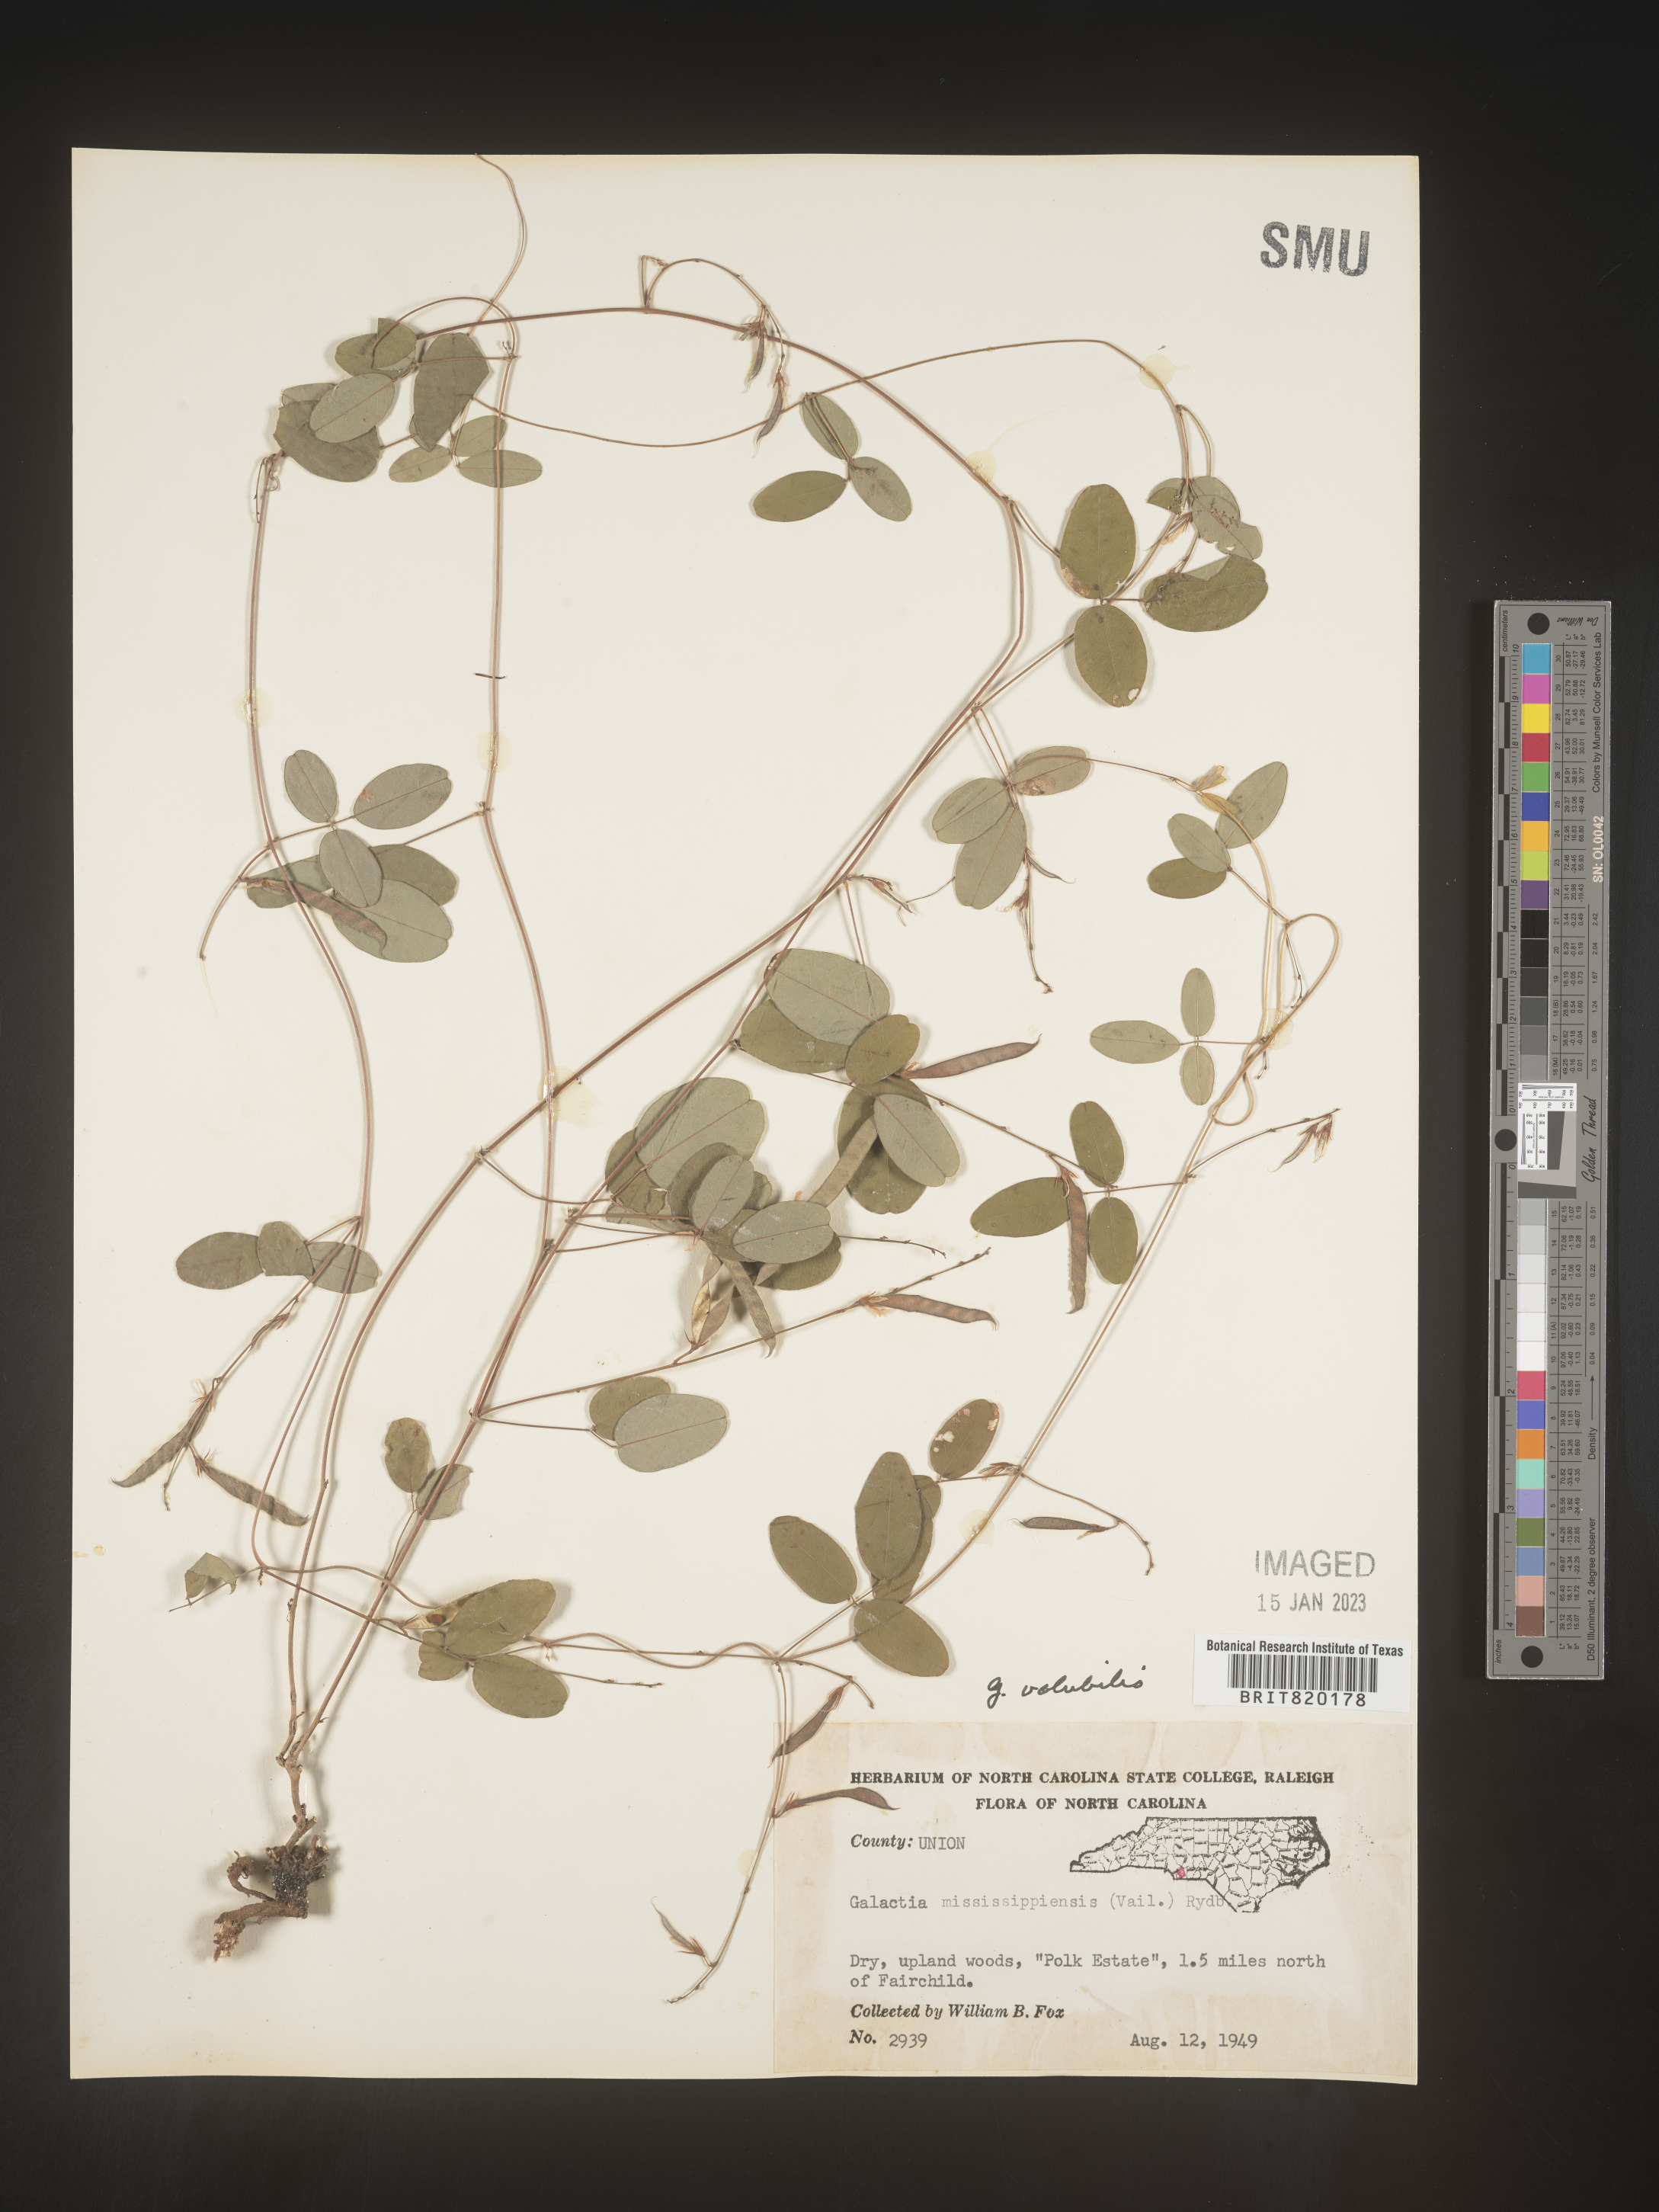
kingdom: Plantae
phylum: Tracheophyta
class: Magnoliopsida
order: Fabales
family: Fabaceae
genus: Galactia
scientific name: Galactia volubilis
